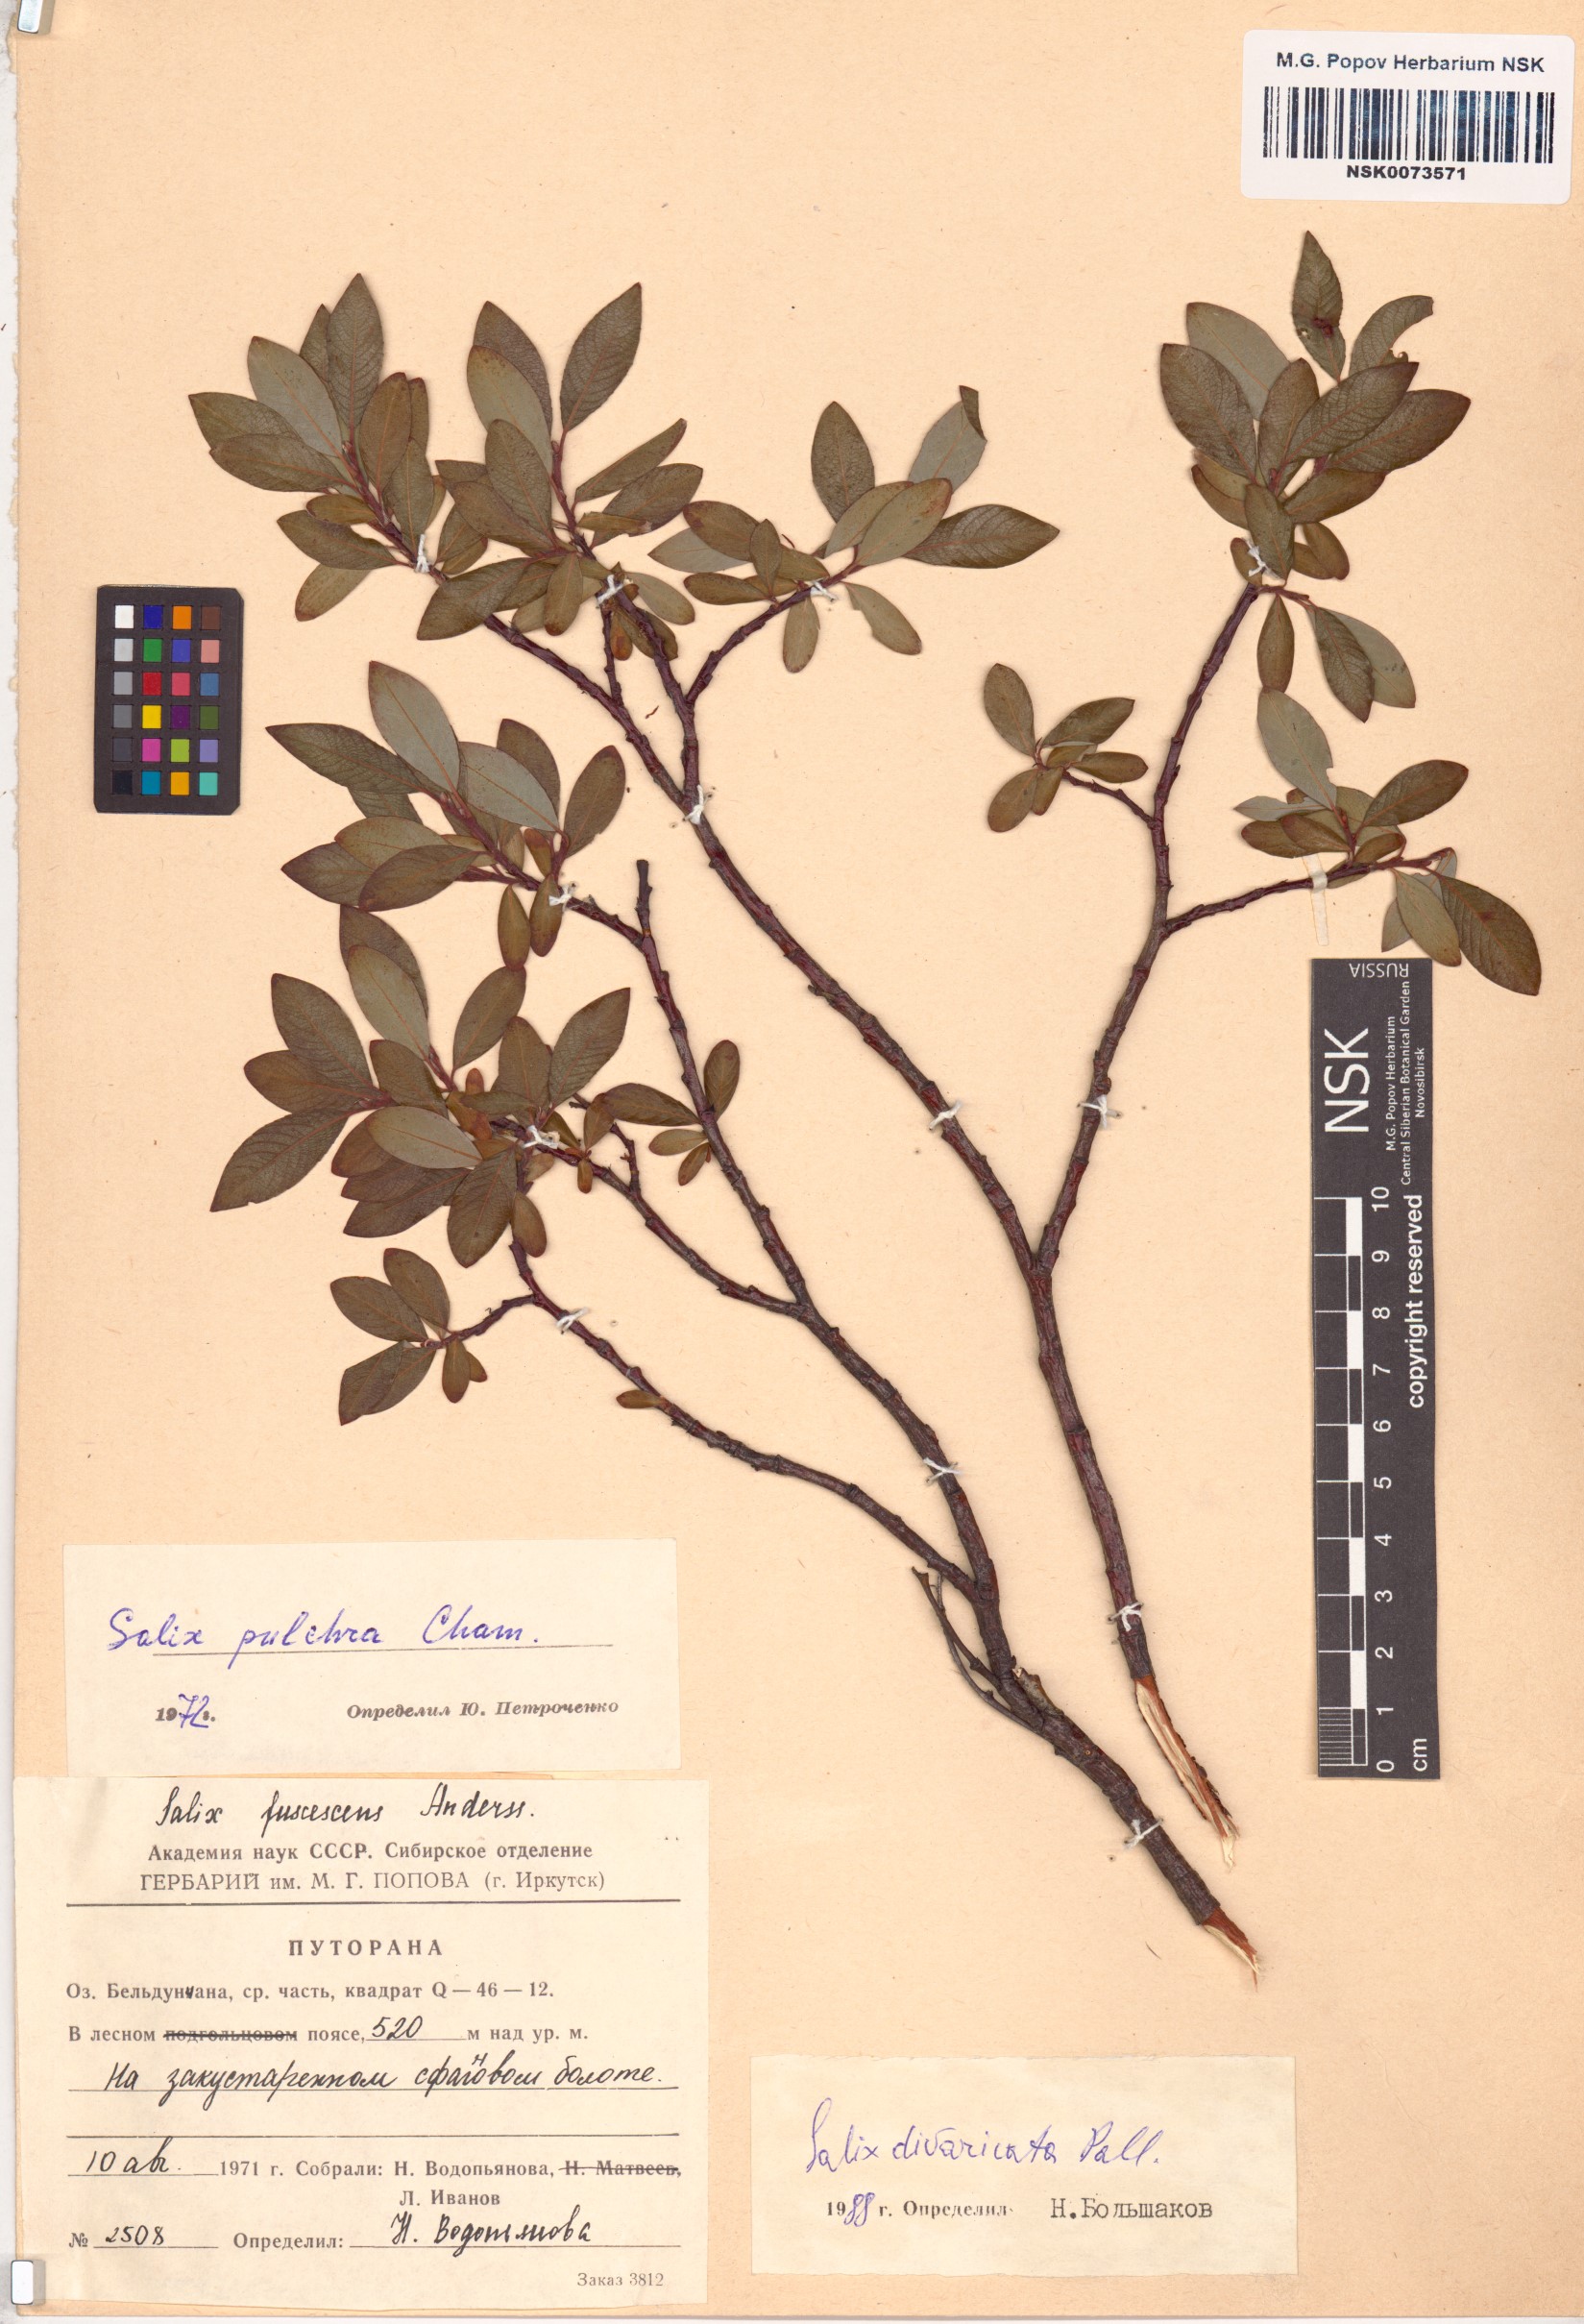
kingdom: Plantae
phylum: Tracheophyta
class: Magnoliopsida
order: Malpighiales
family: Salicaceae
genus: Salix
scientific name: Salix divaricata
